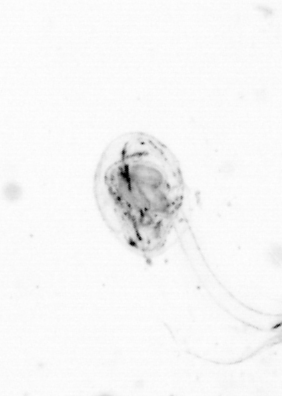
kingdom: Animalia
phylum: Chordata
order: Copelata
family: Fritillariidae
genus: Appendicularia
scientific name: Appendicularia
